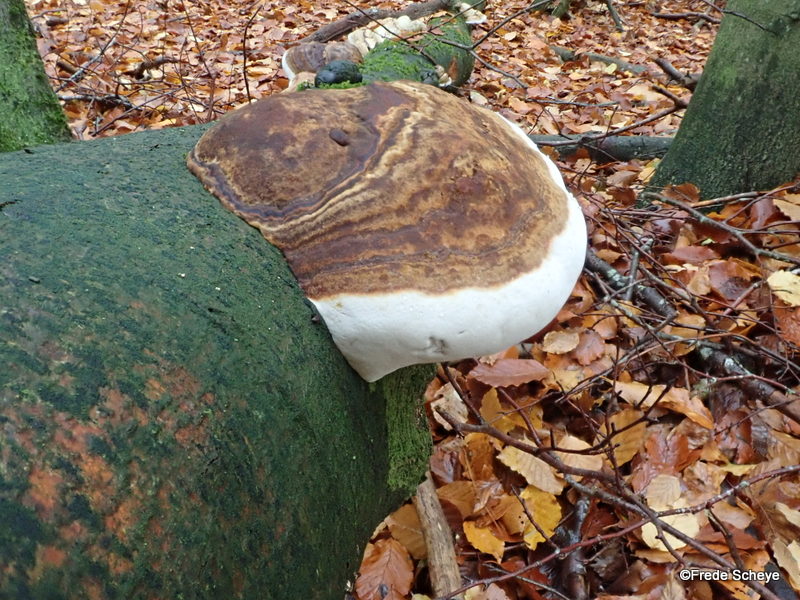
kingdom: Fungi
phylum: Basidiomycota
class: Agaricomycetes
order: Polyporales
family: Fomitopsidaceae
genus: Fomitopsis
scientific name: Fomitopsis pinicola
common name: randbæltet hovporesvamp
